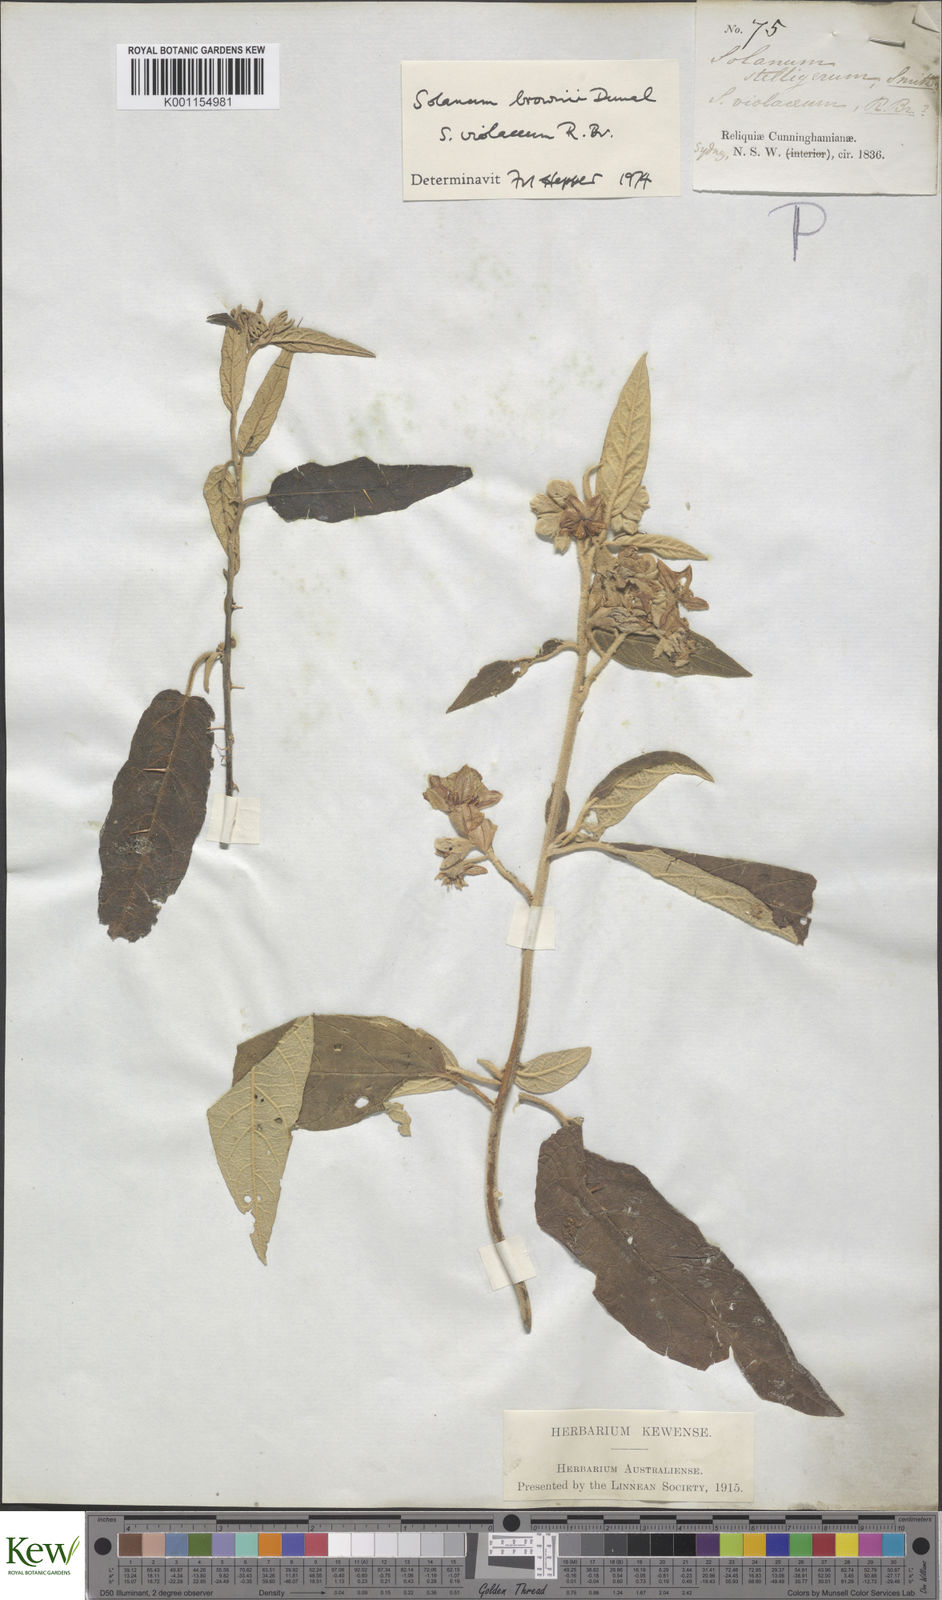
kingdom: Plantae
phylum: Tracheophyta
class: Magnoliopsida
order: Solanales
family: Solanaceae
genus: Solanum
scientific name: Solanum brownii
